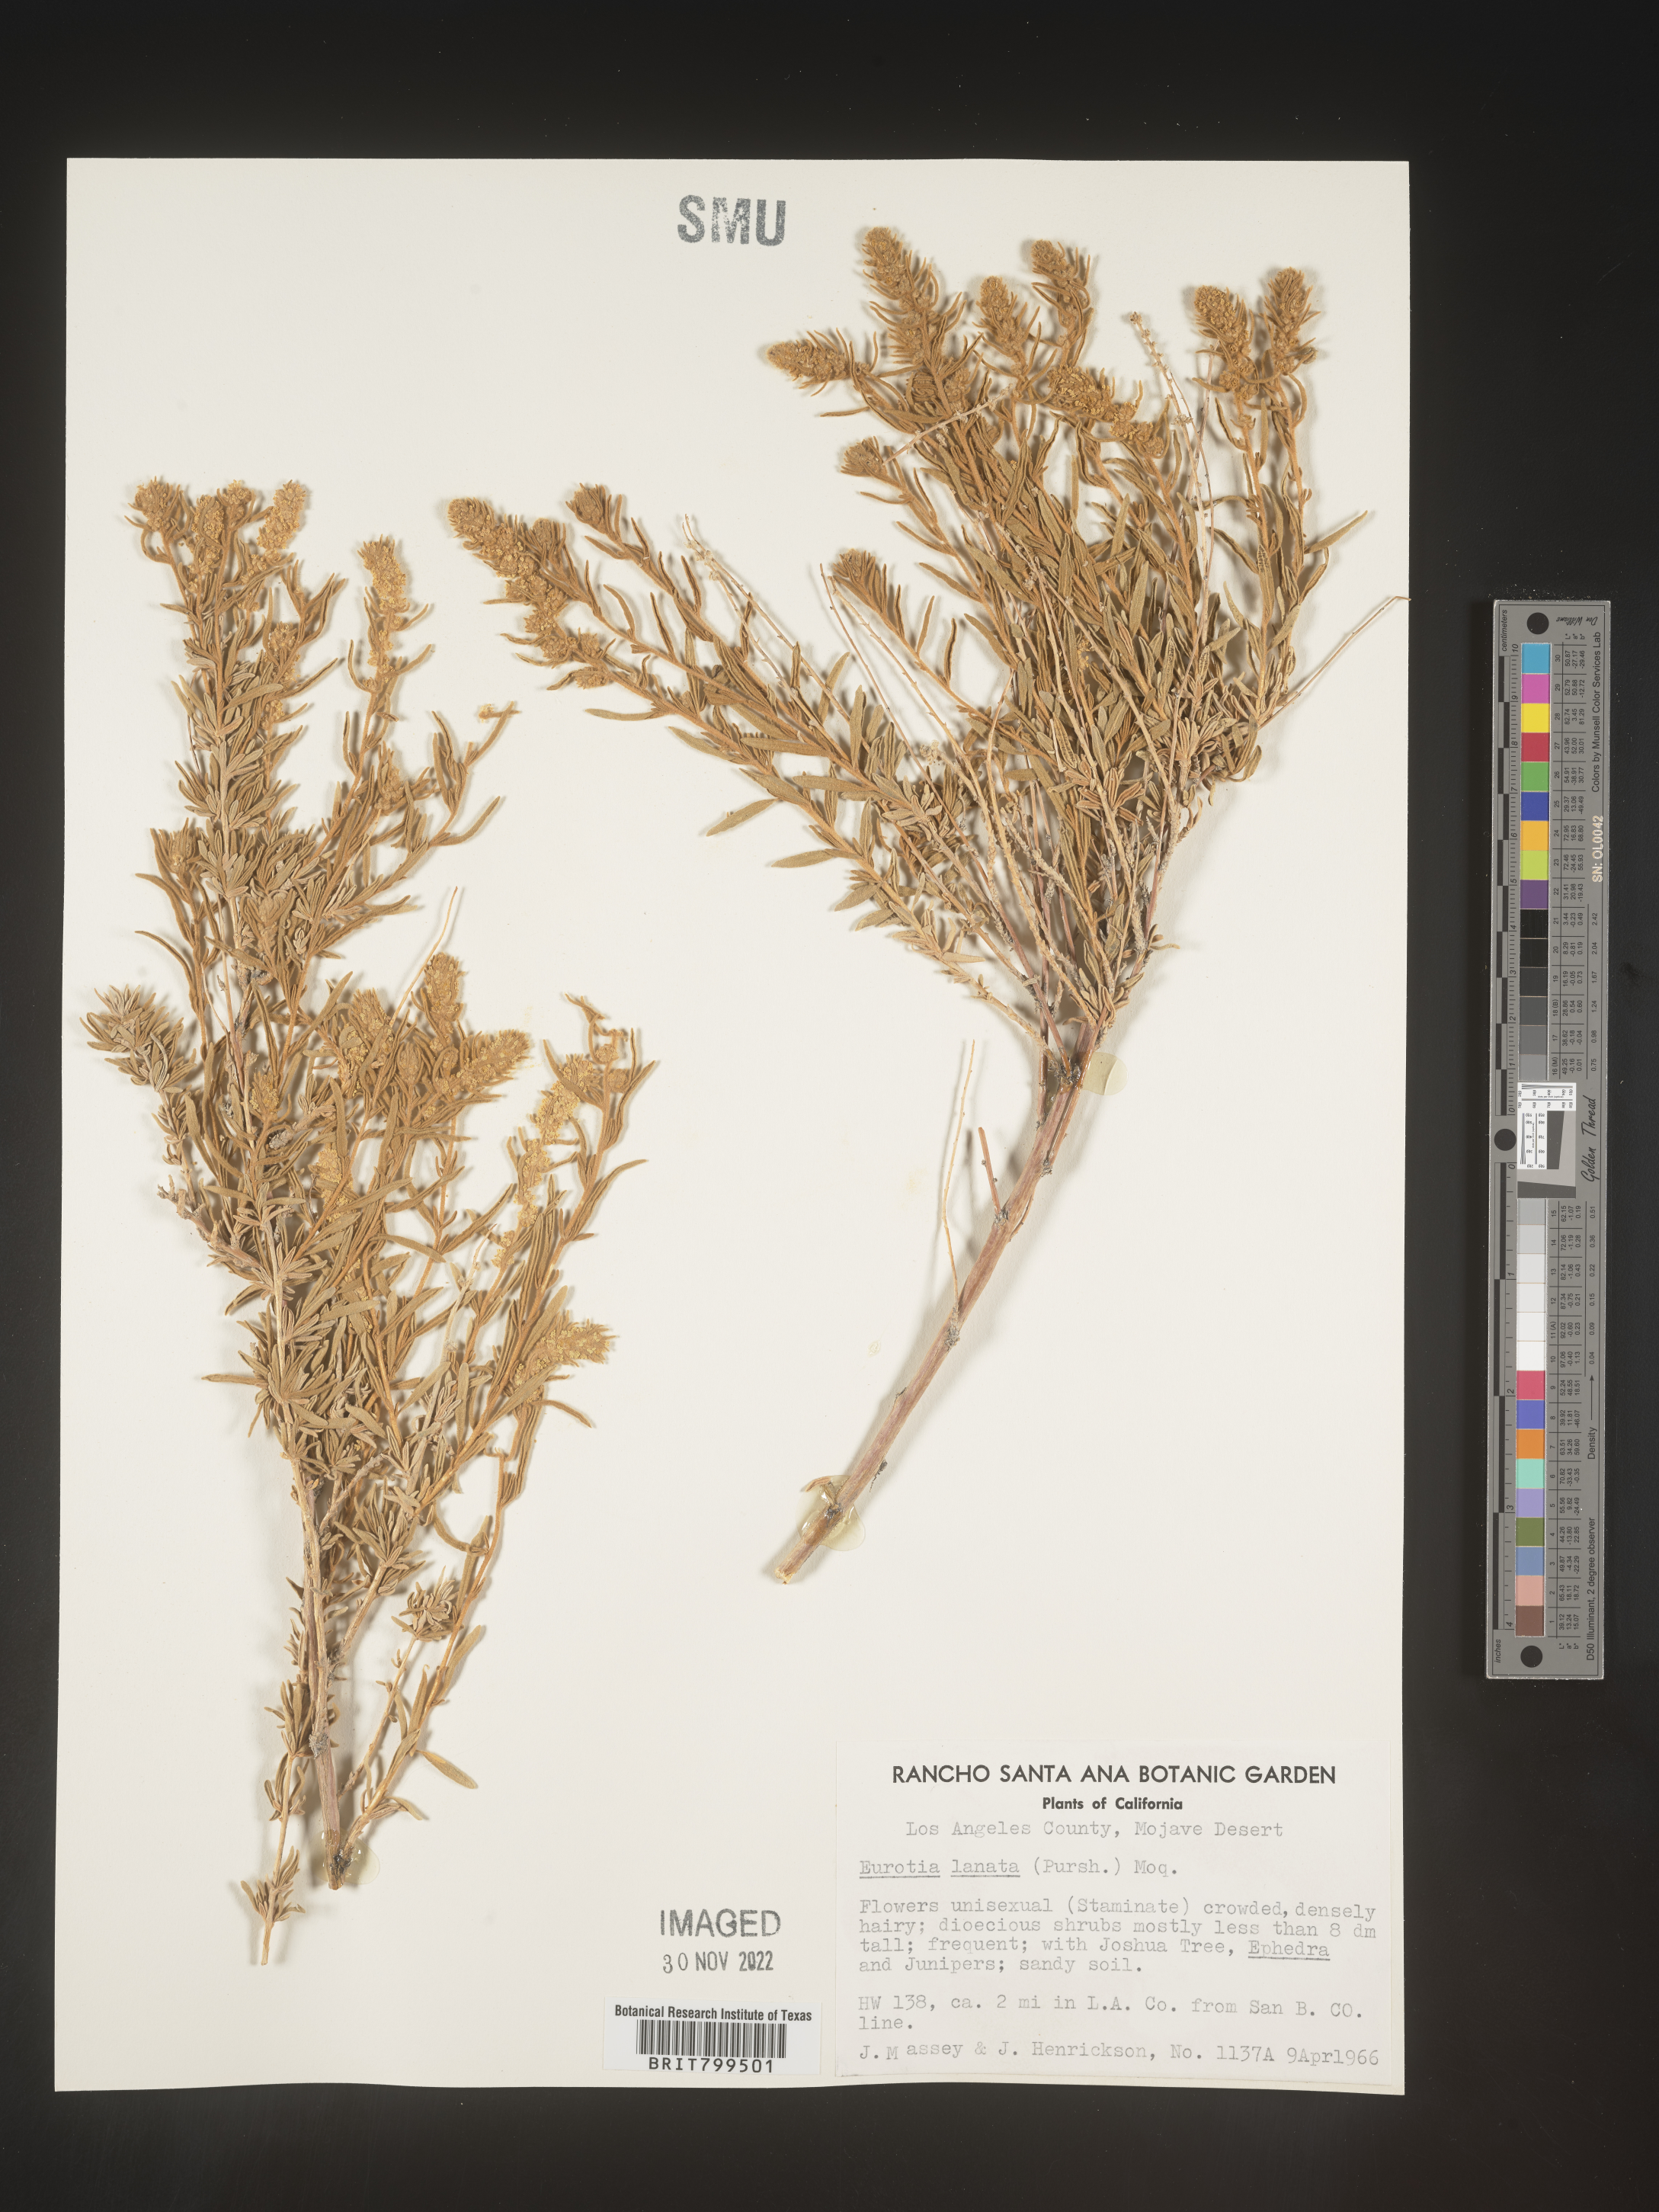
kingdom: Plantae
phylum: Tracheophyta
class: Magnoliopsida
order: Caryophyllales
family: Amaranthaceae
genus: Krascheninnikovia
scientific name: Krascheninnikovia
